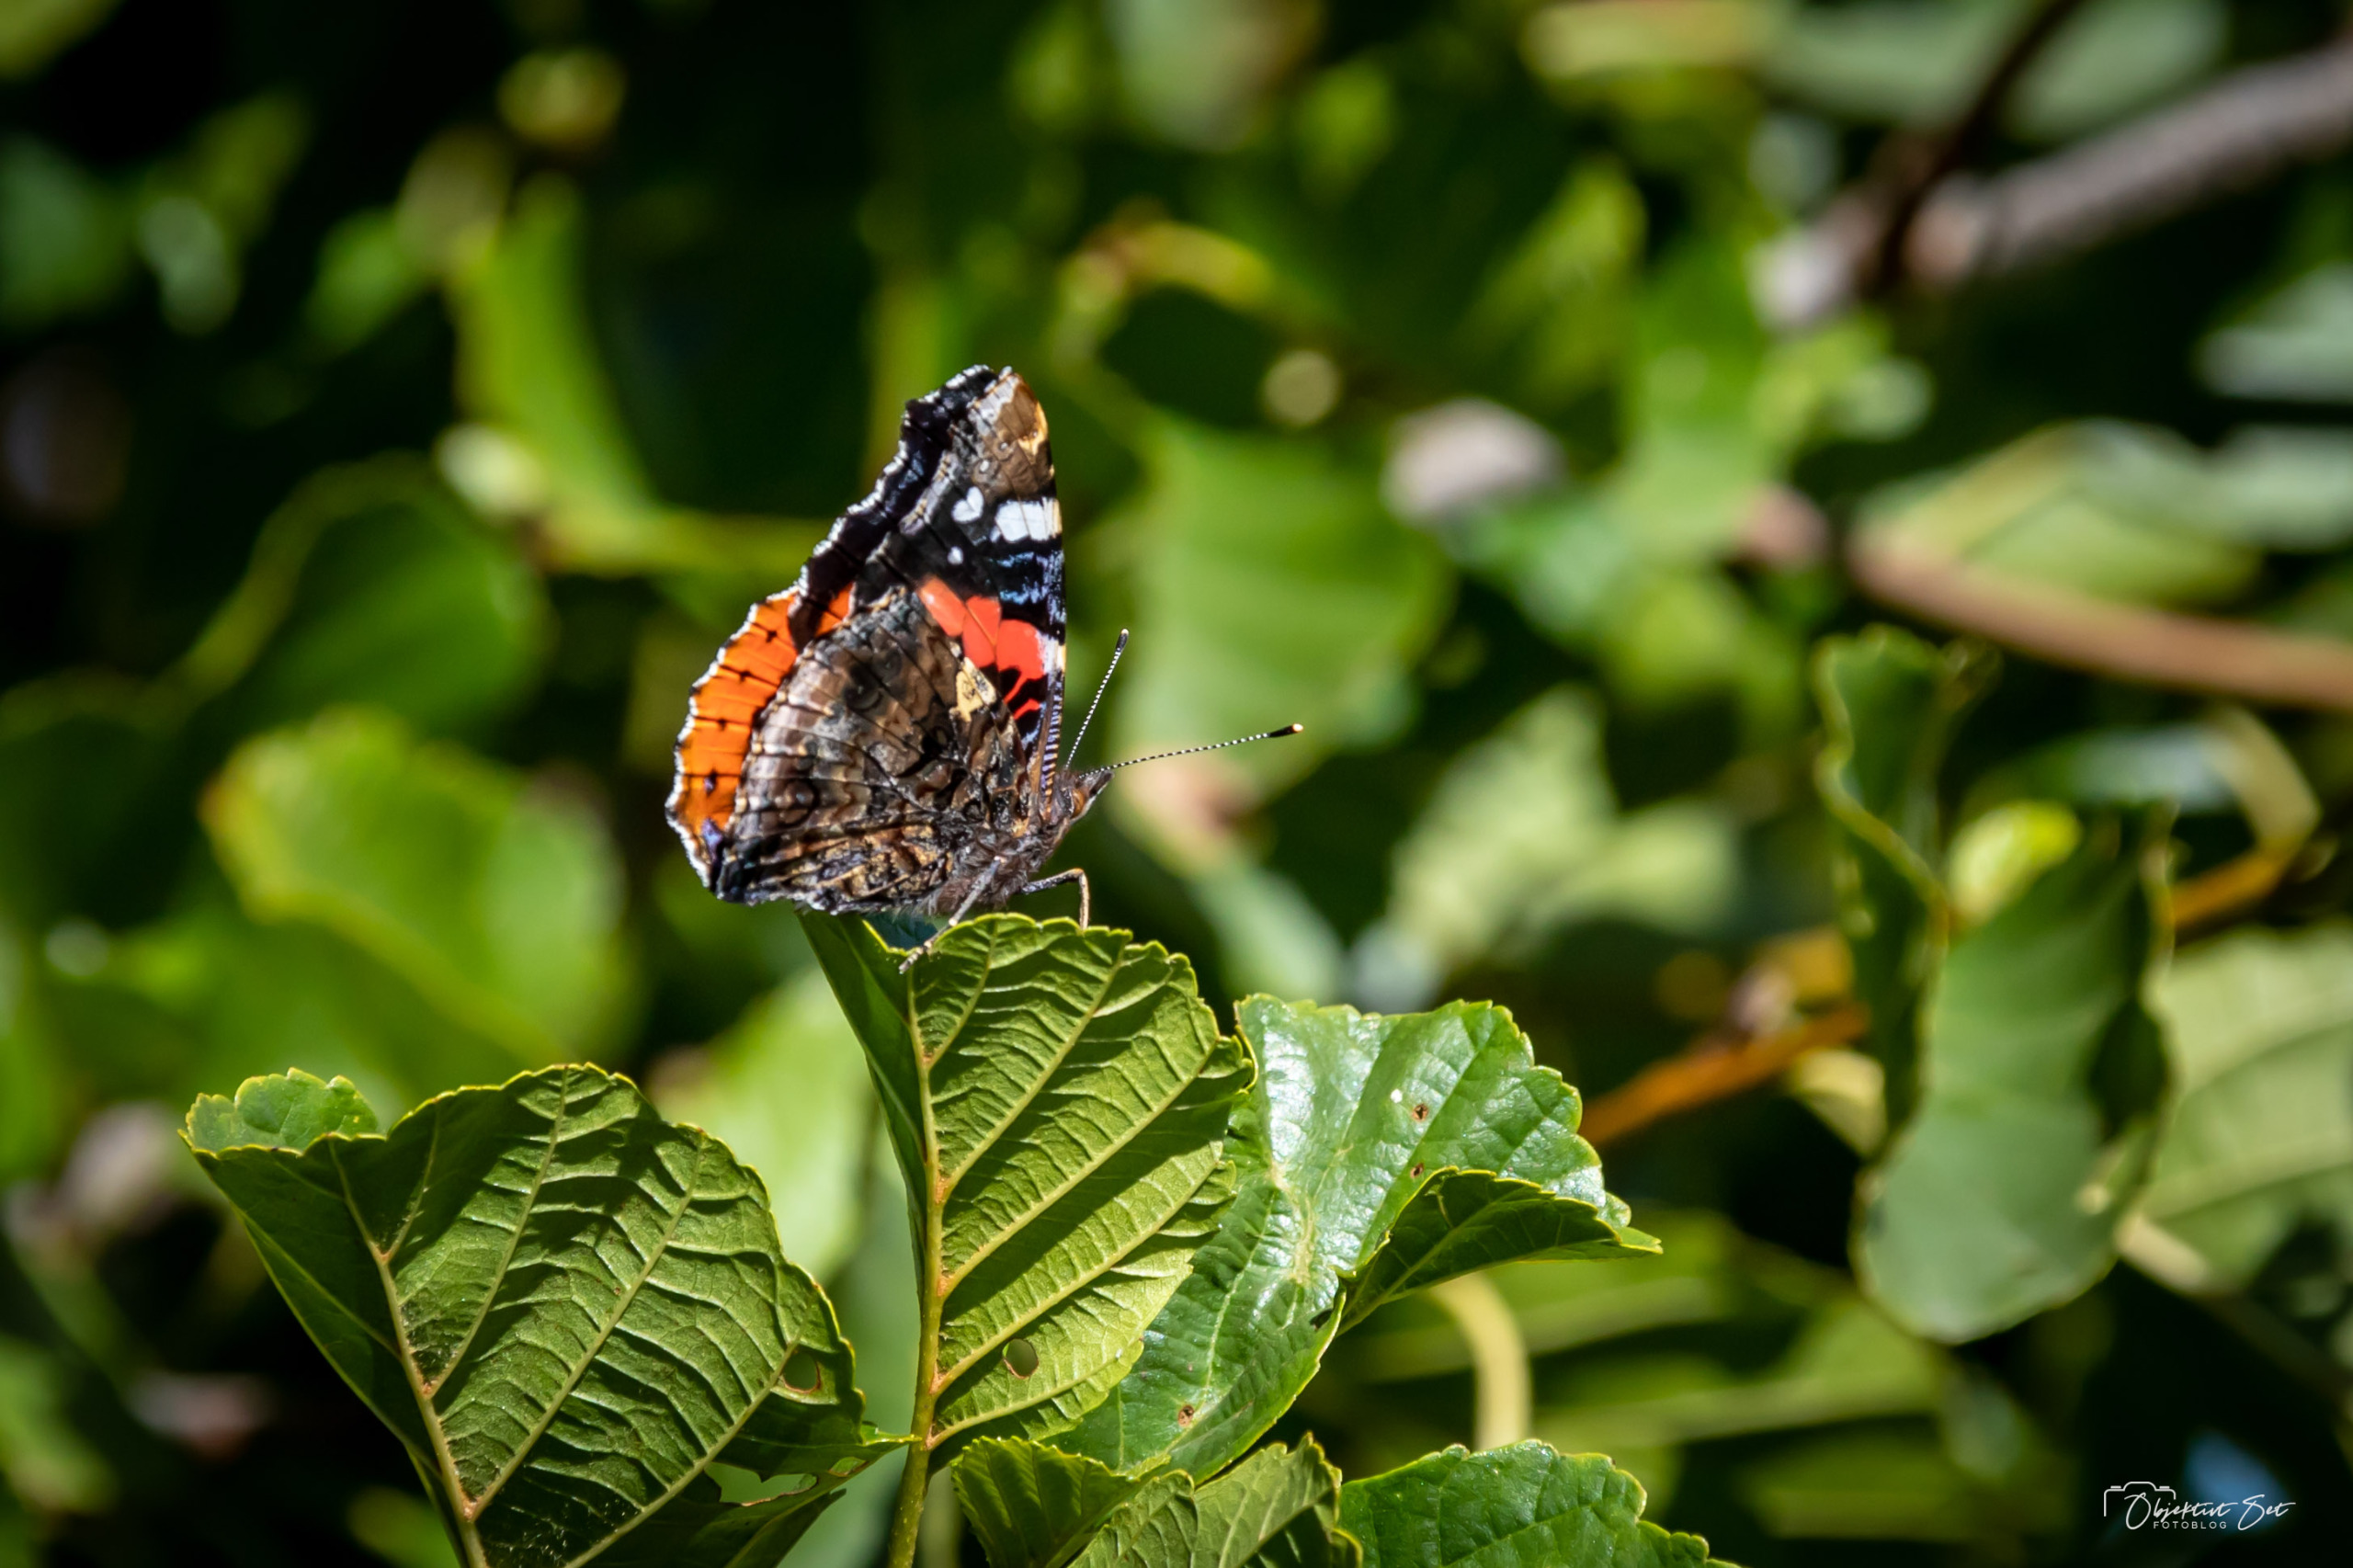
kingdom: Animalia
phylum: Arthropoda
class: Insecta
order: Lepidoptera
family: Nymphalidae
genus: Vanessa
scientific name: Vanessa atalanta
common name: Admiral
